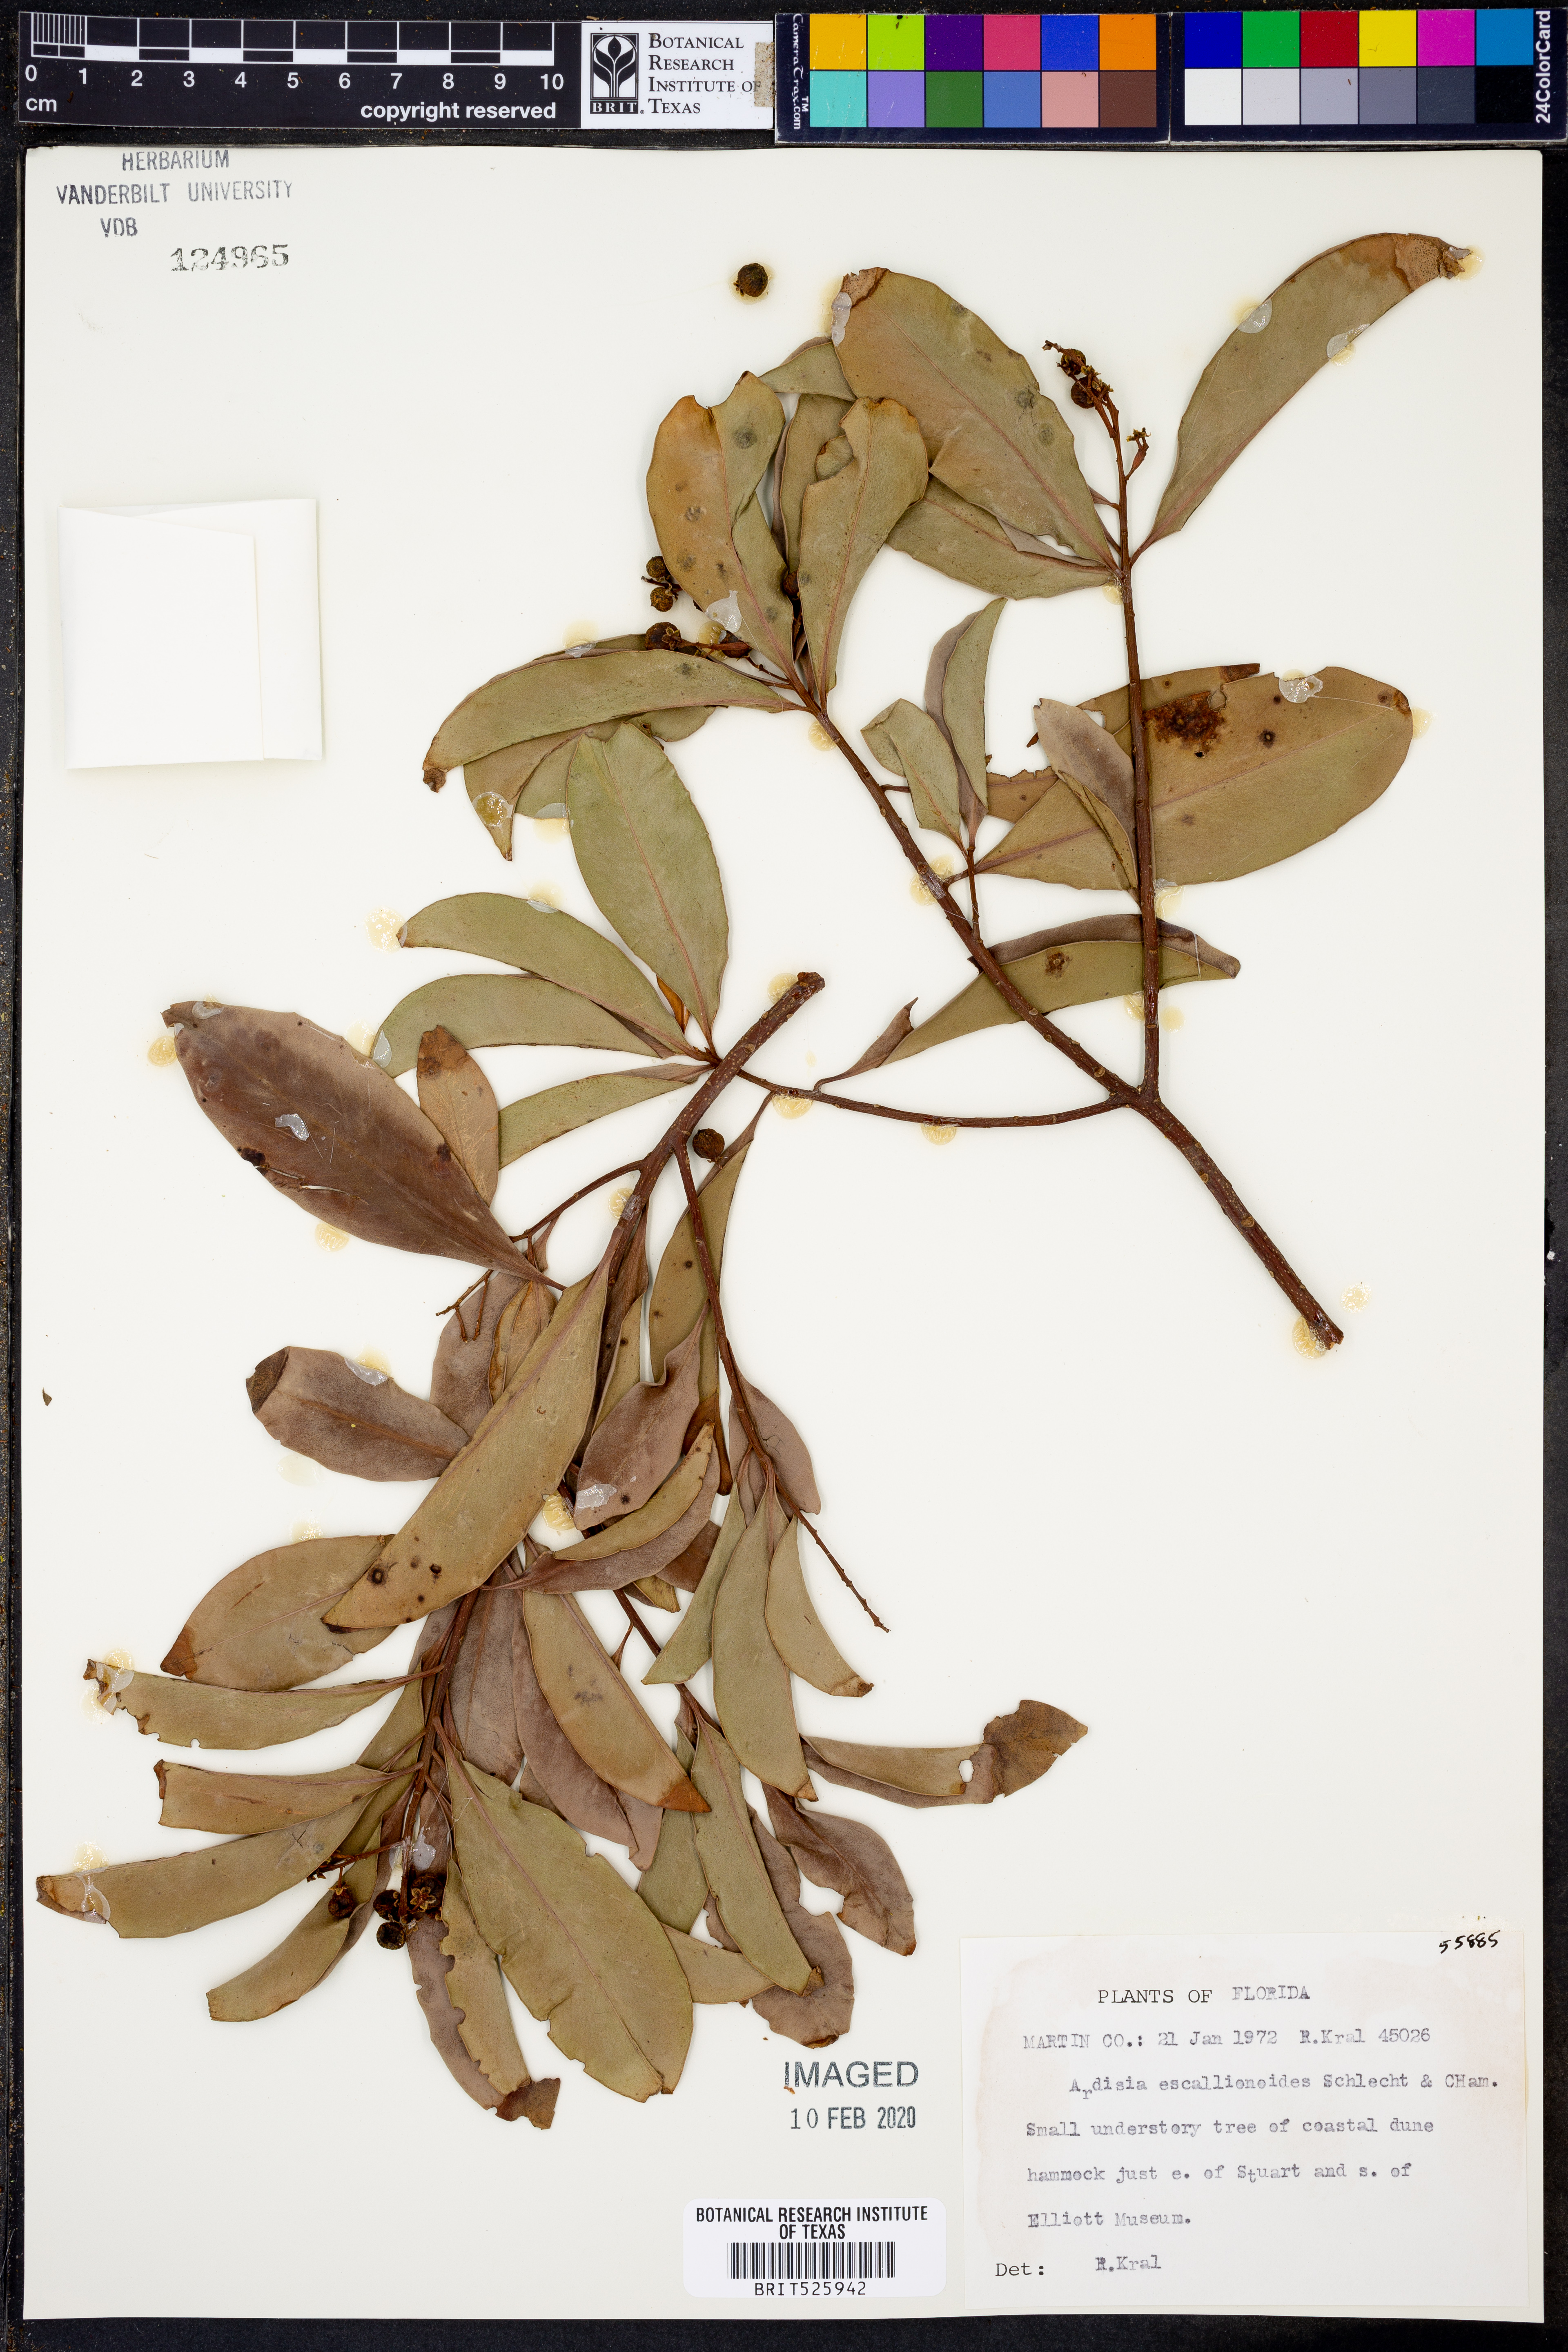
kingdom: Plantae
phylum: Tracheophyta
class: Magnoliopsida
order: Ericales
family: Primulaceae
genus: Ardisia
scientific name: Ardisia escallonioides
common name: Island marlberry
